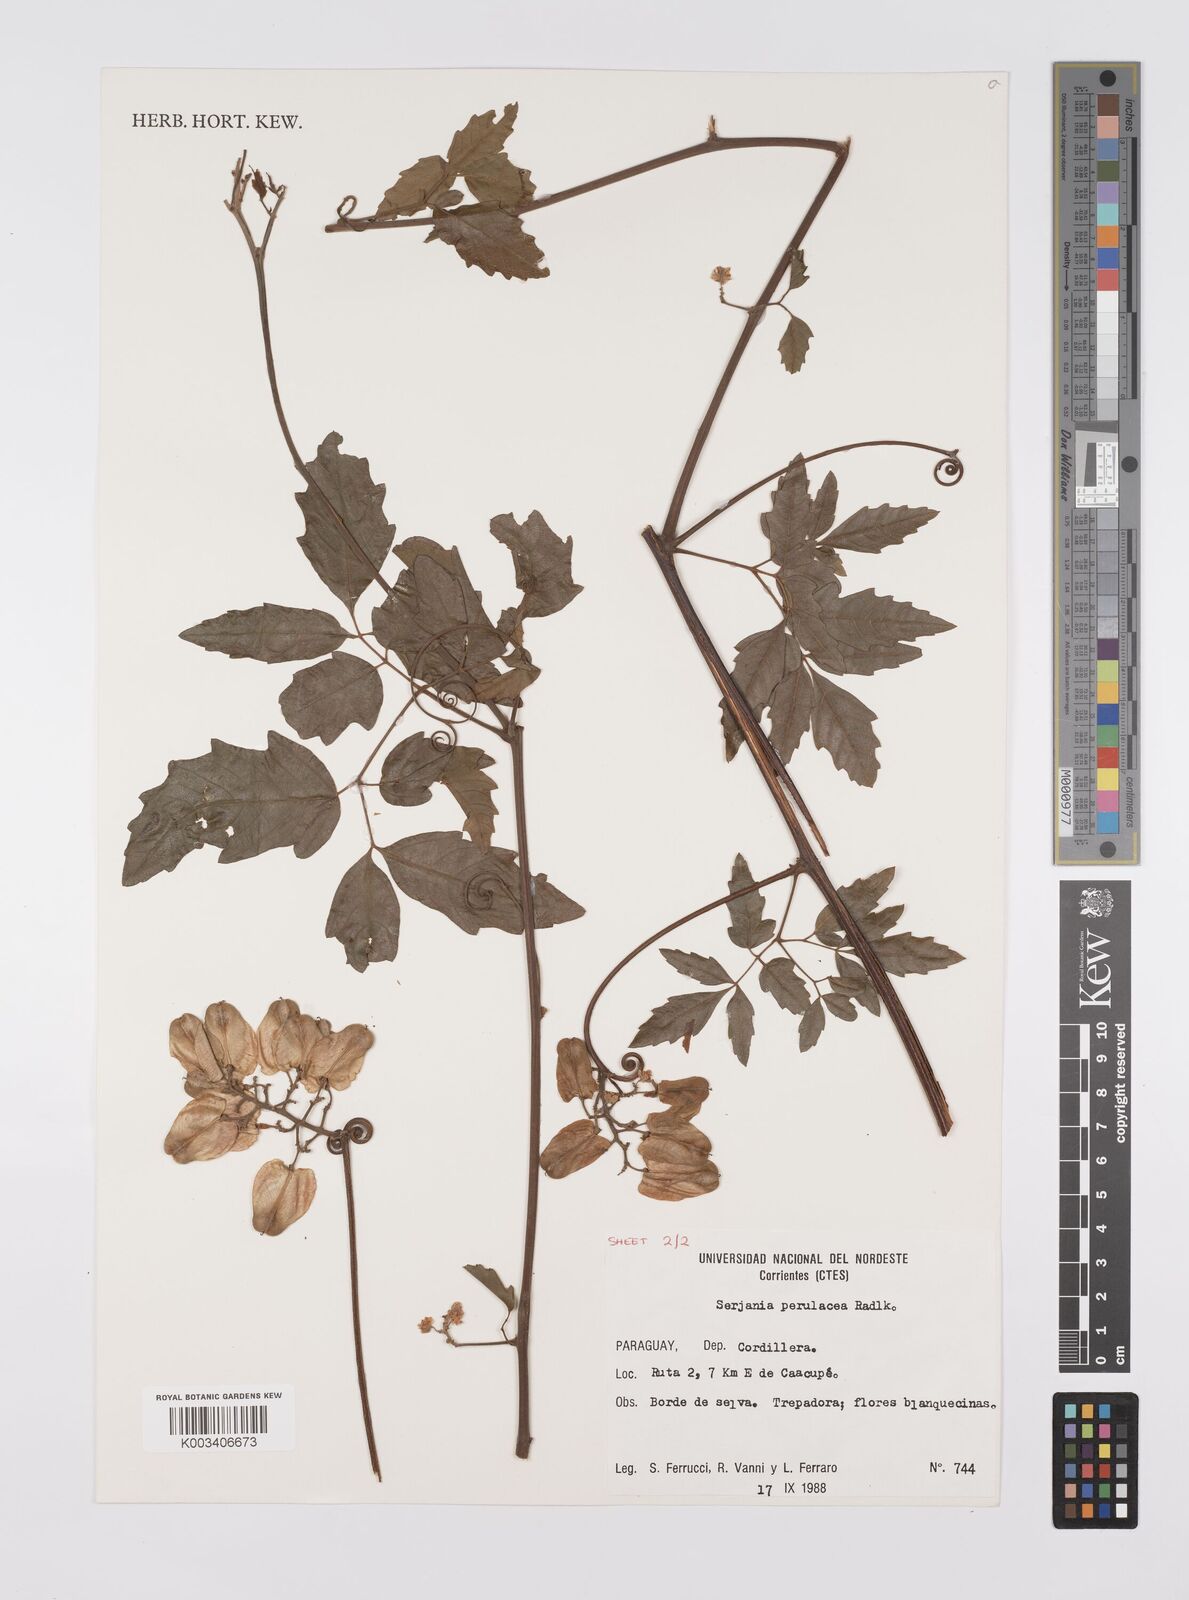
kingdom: Plantae
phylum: Tracheophyta
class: Magnoliopsida
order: Sapindales
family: Sapindaceae
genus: Serjania
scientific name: Serjania perulacea
